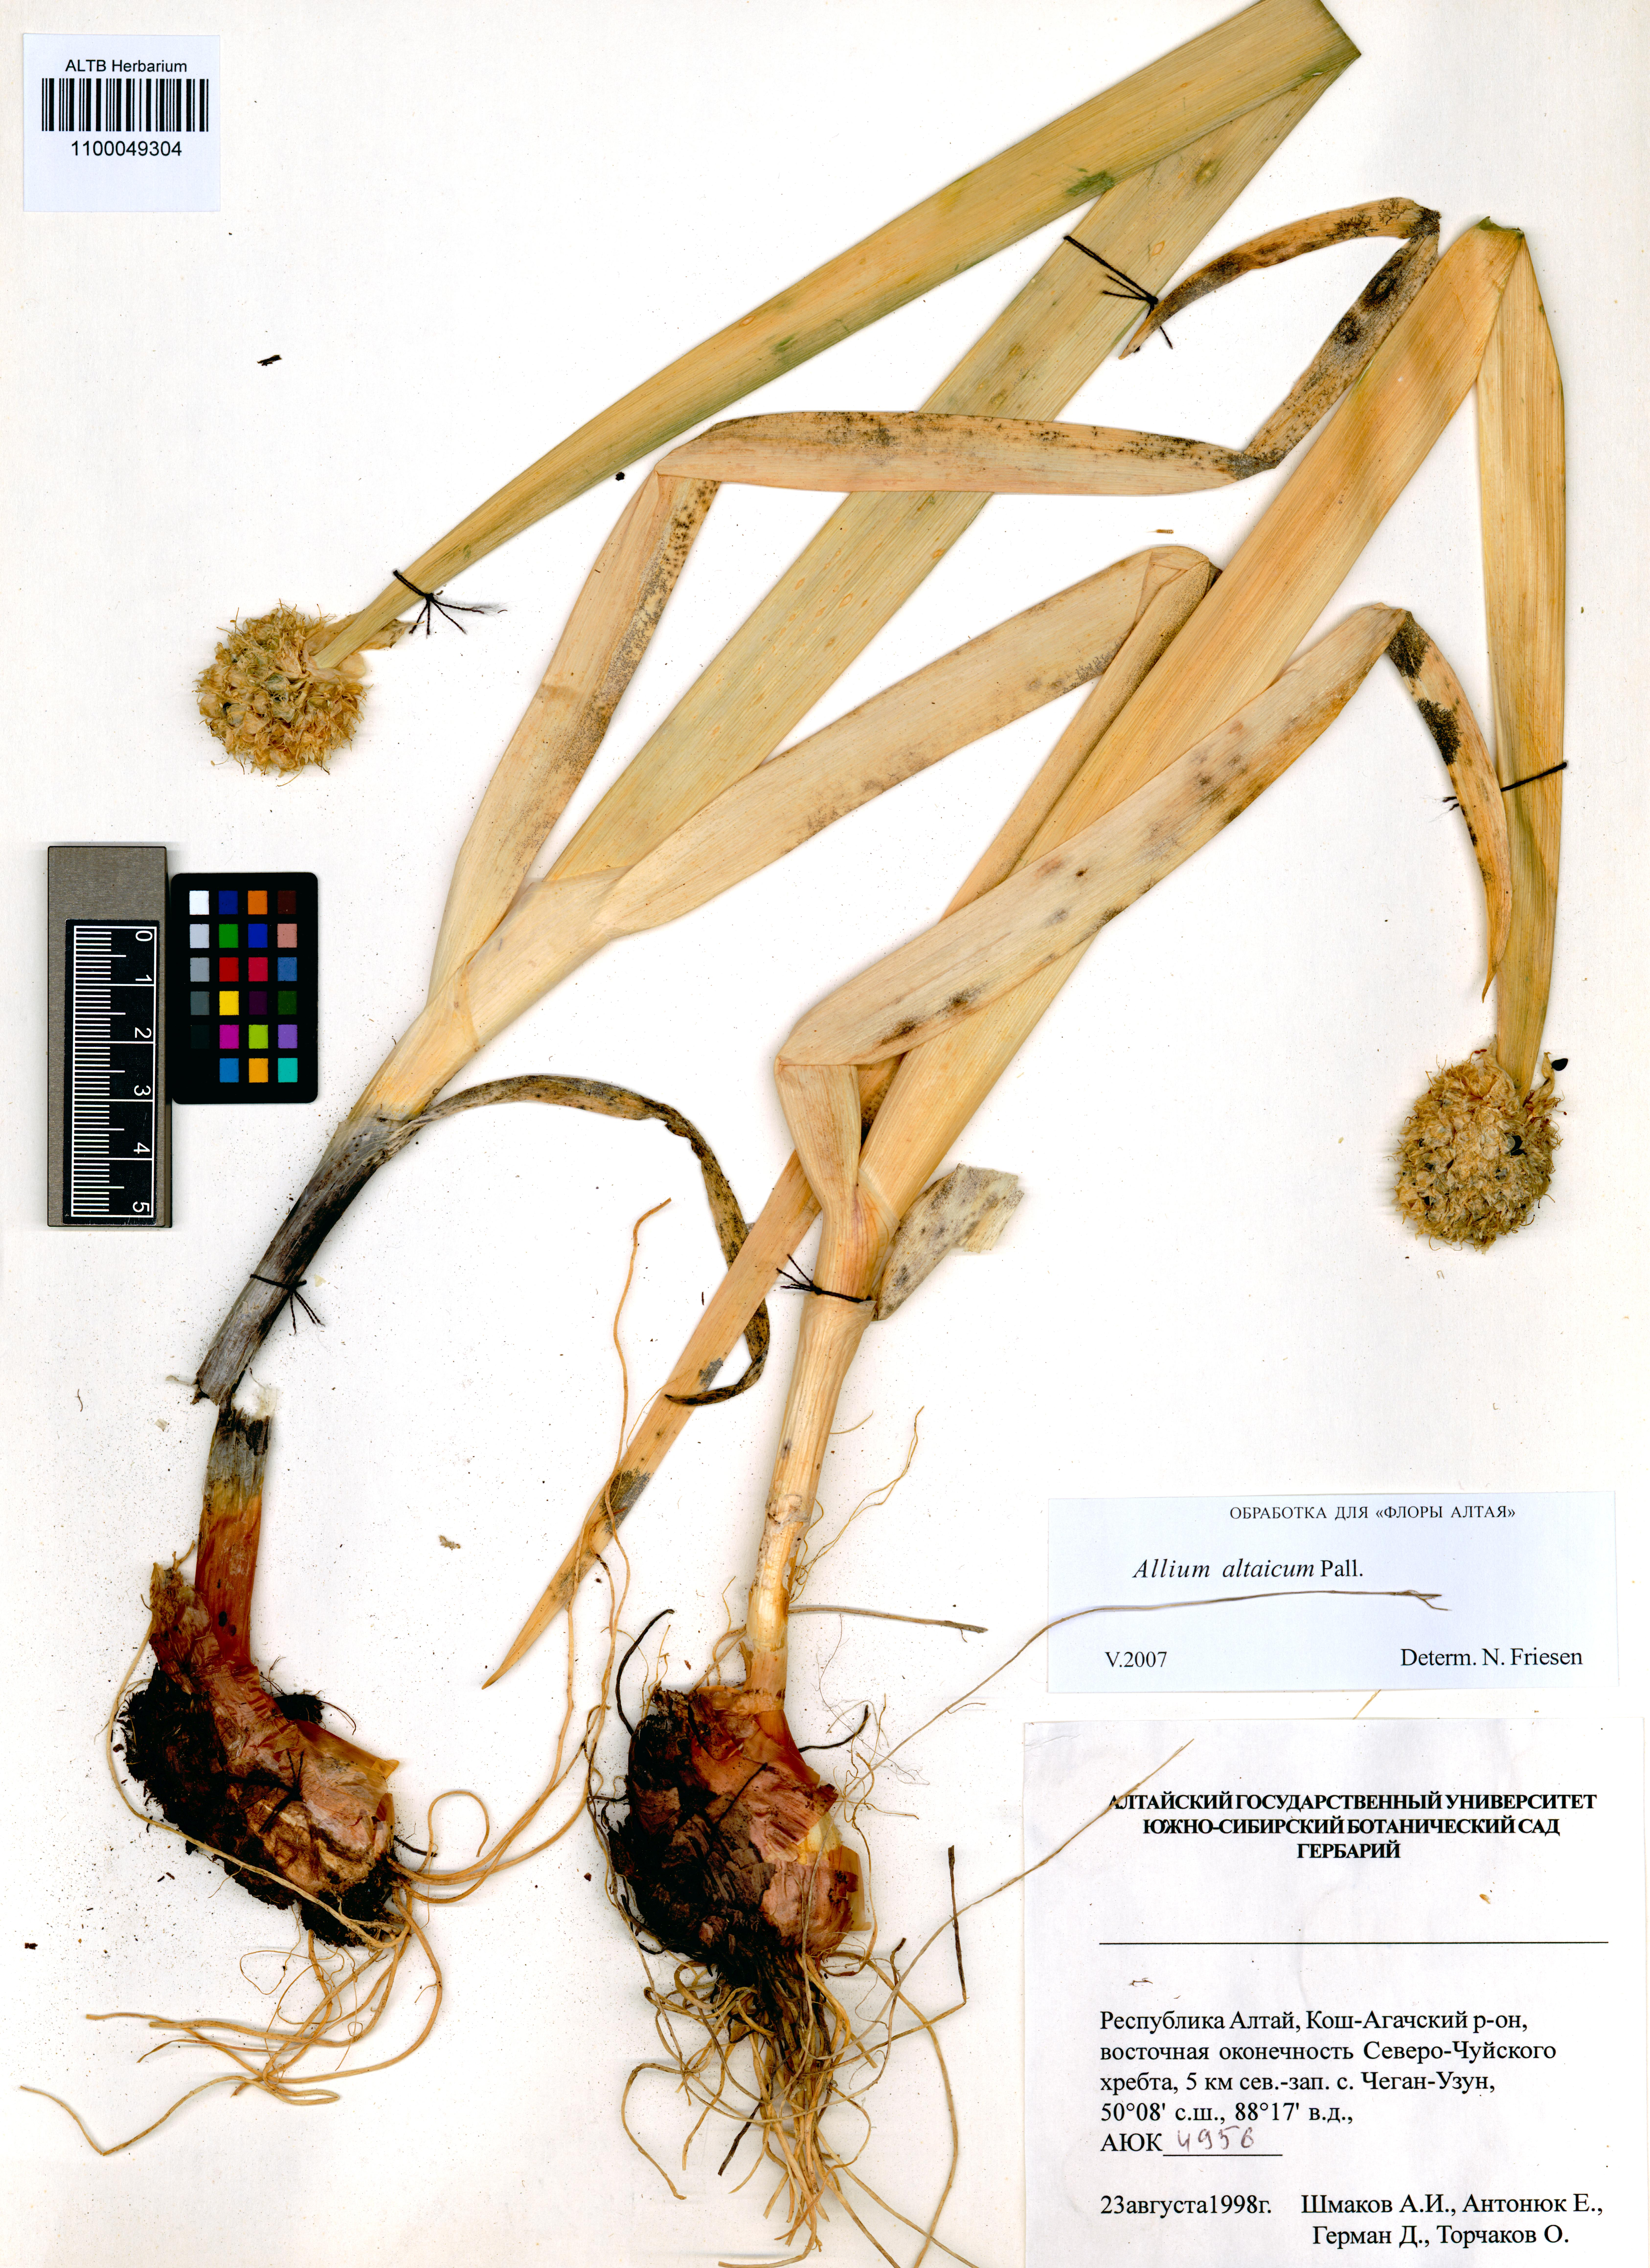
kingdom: Plantae
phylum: Tracheophyta
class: Liliopsida
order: Asparagales
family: Amaryllidaceae
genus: Allium
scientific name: Allium altaicum
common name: Altai onion
